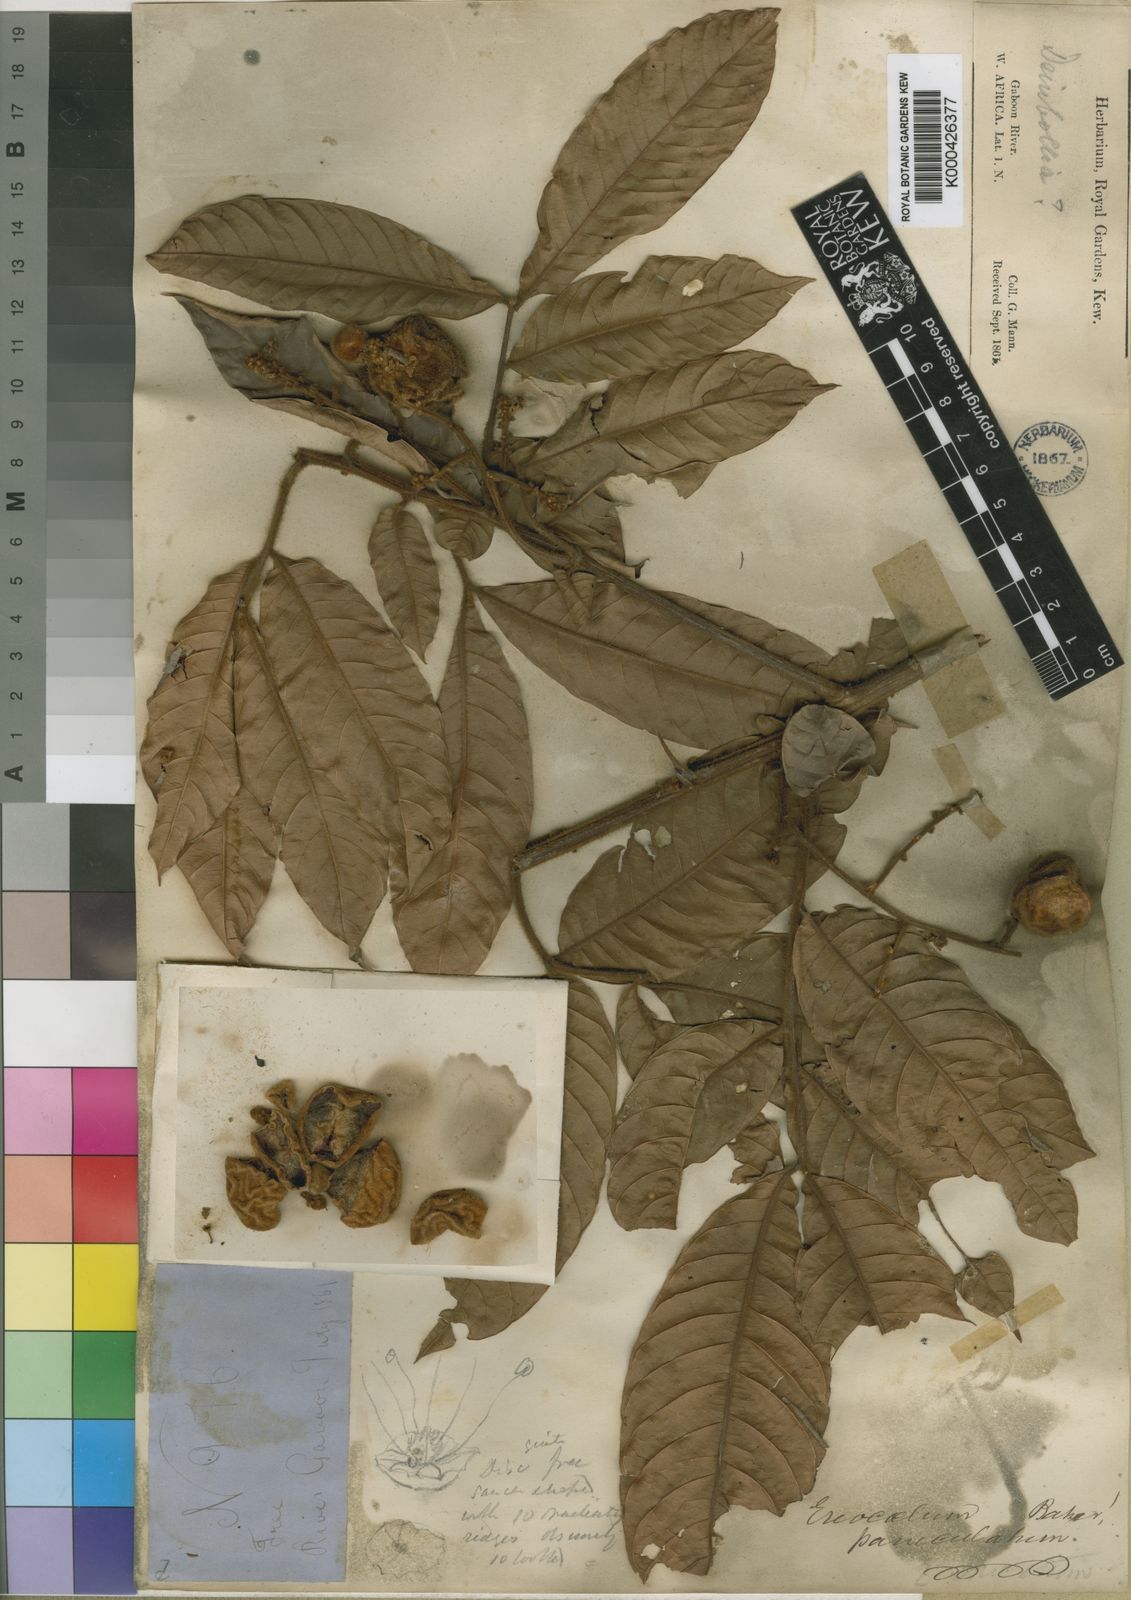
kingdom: Plantae
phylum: Tracheophyta
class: Magnoliopsida
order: Sapindales
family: Sapindaceae
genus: Eriocoelum
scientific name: Eriocoelum paniculatum
